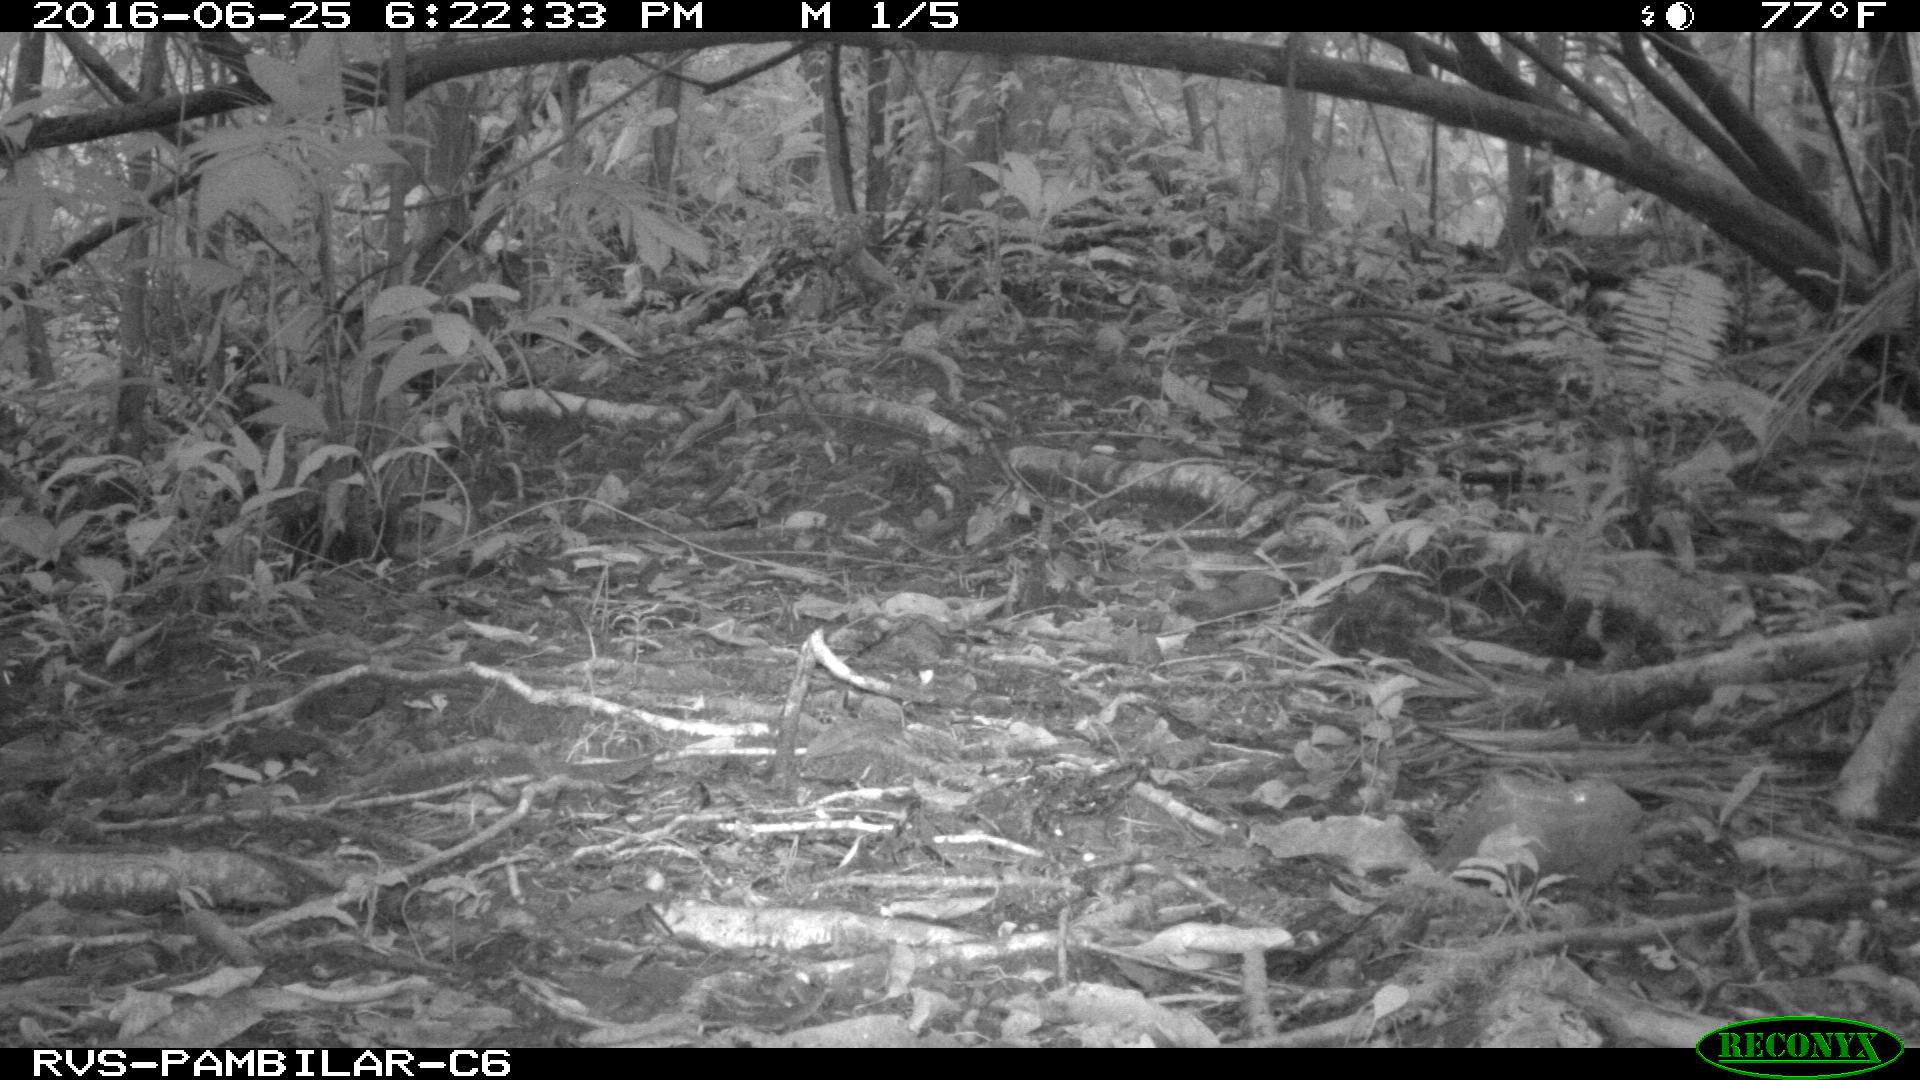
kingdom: Animalia
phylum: Chordata
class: Mammalia
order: Rodentia
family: Dasyproctidae
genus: Dasyprocta
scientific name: Dasyprocta punctata
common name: Central american agouti
